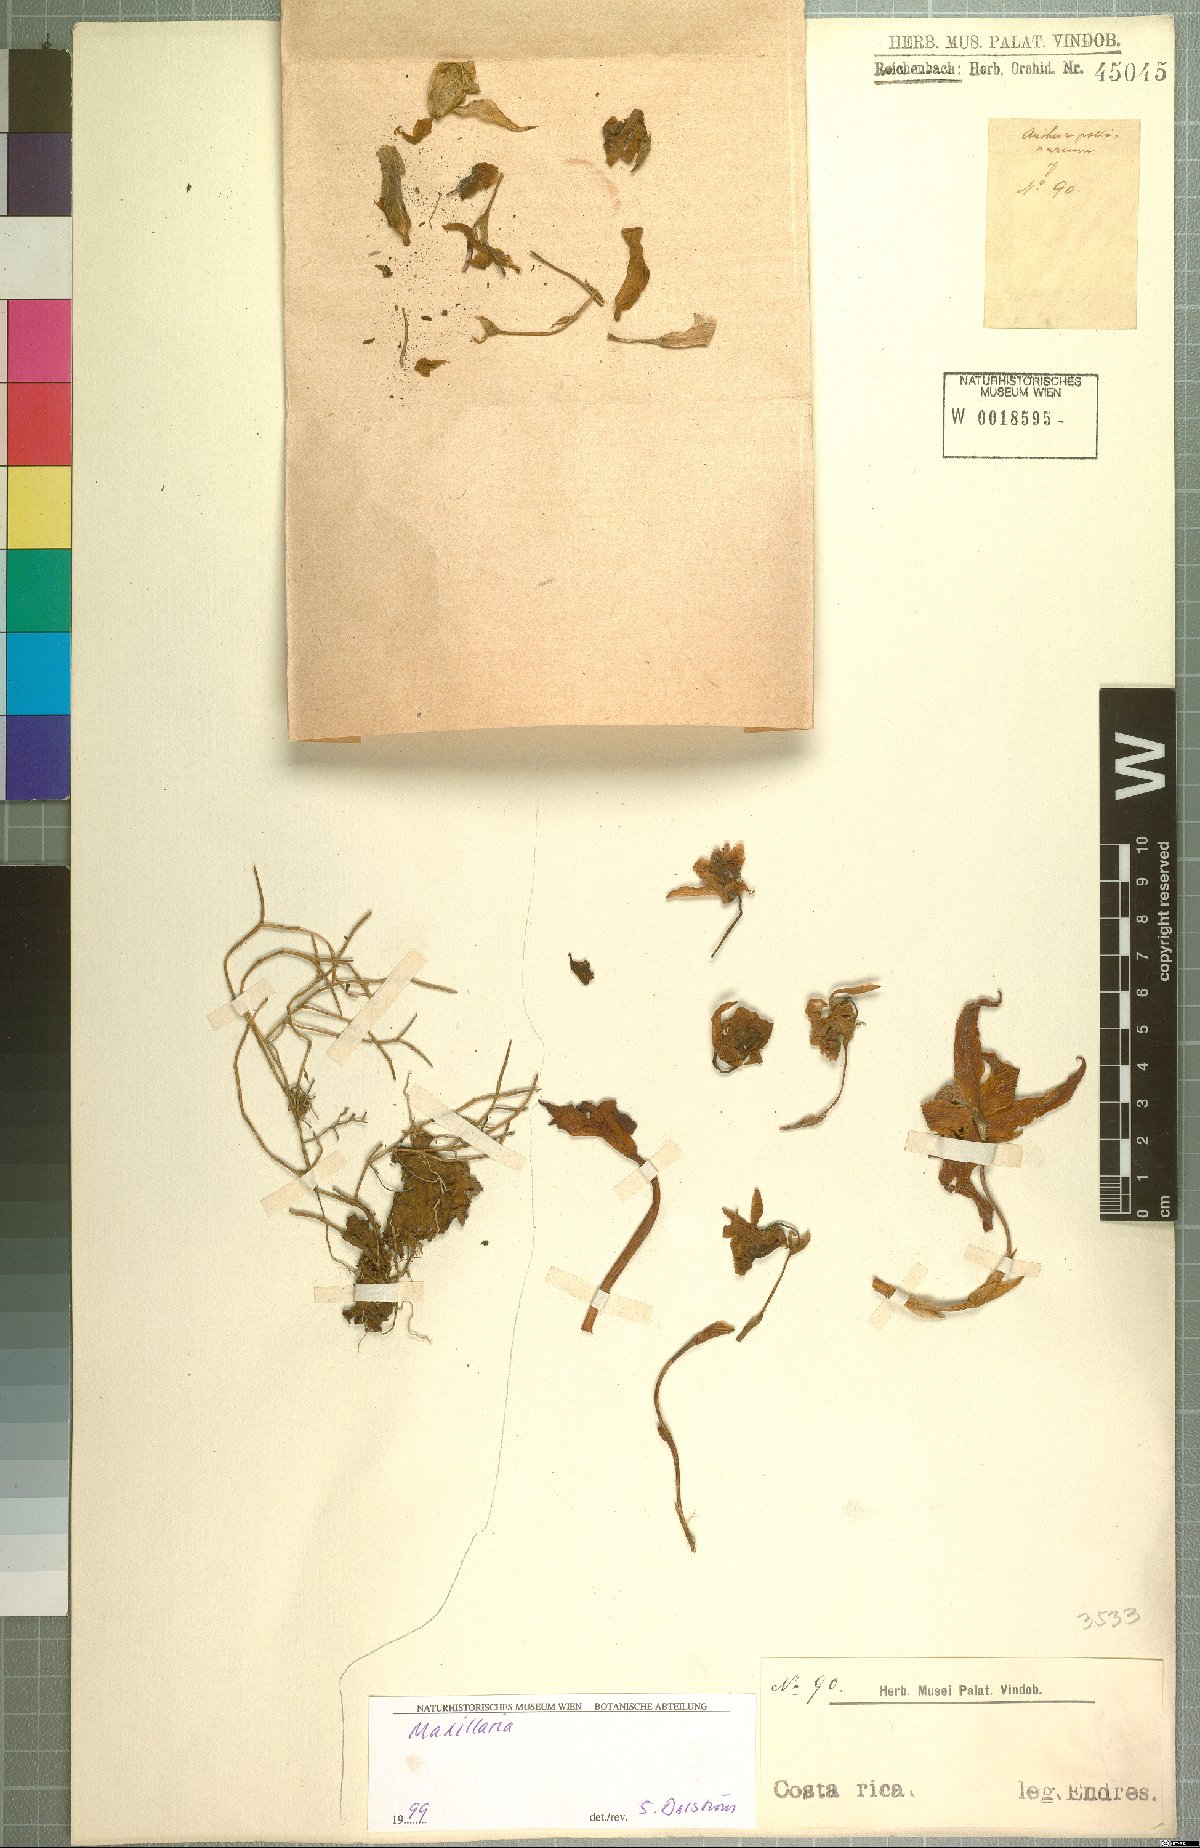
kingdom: Plantae
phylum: Tracheophyta
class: Liliopsida
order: Asparagales
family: Orchidaceae
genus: Maxillaria
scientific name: Maxillaria
